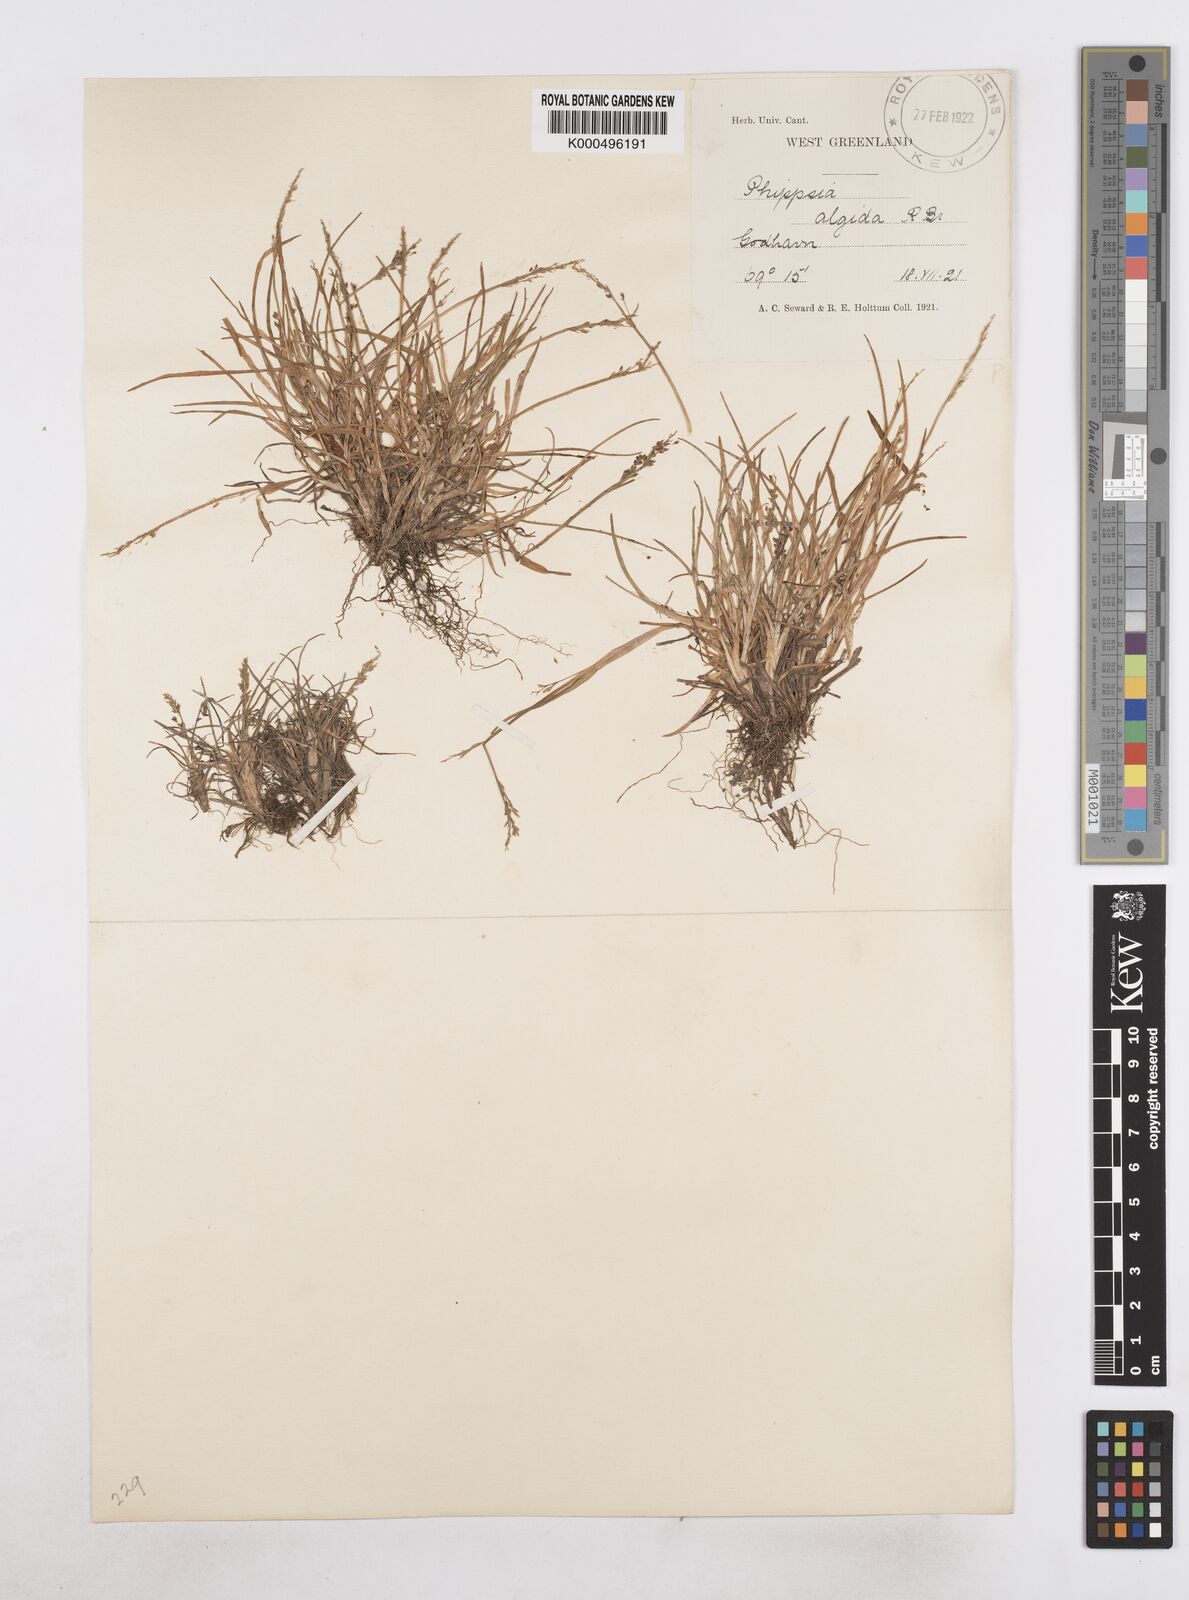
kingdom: Plantae
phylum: Tracheophyta
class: Liliopsida
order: Poales
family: Poaceae
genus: Phippsia
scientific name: Phippsia algida
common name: Ice grass
